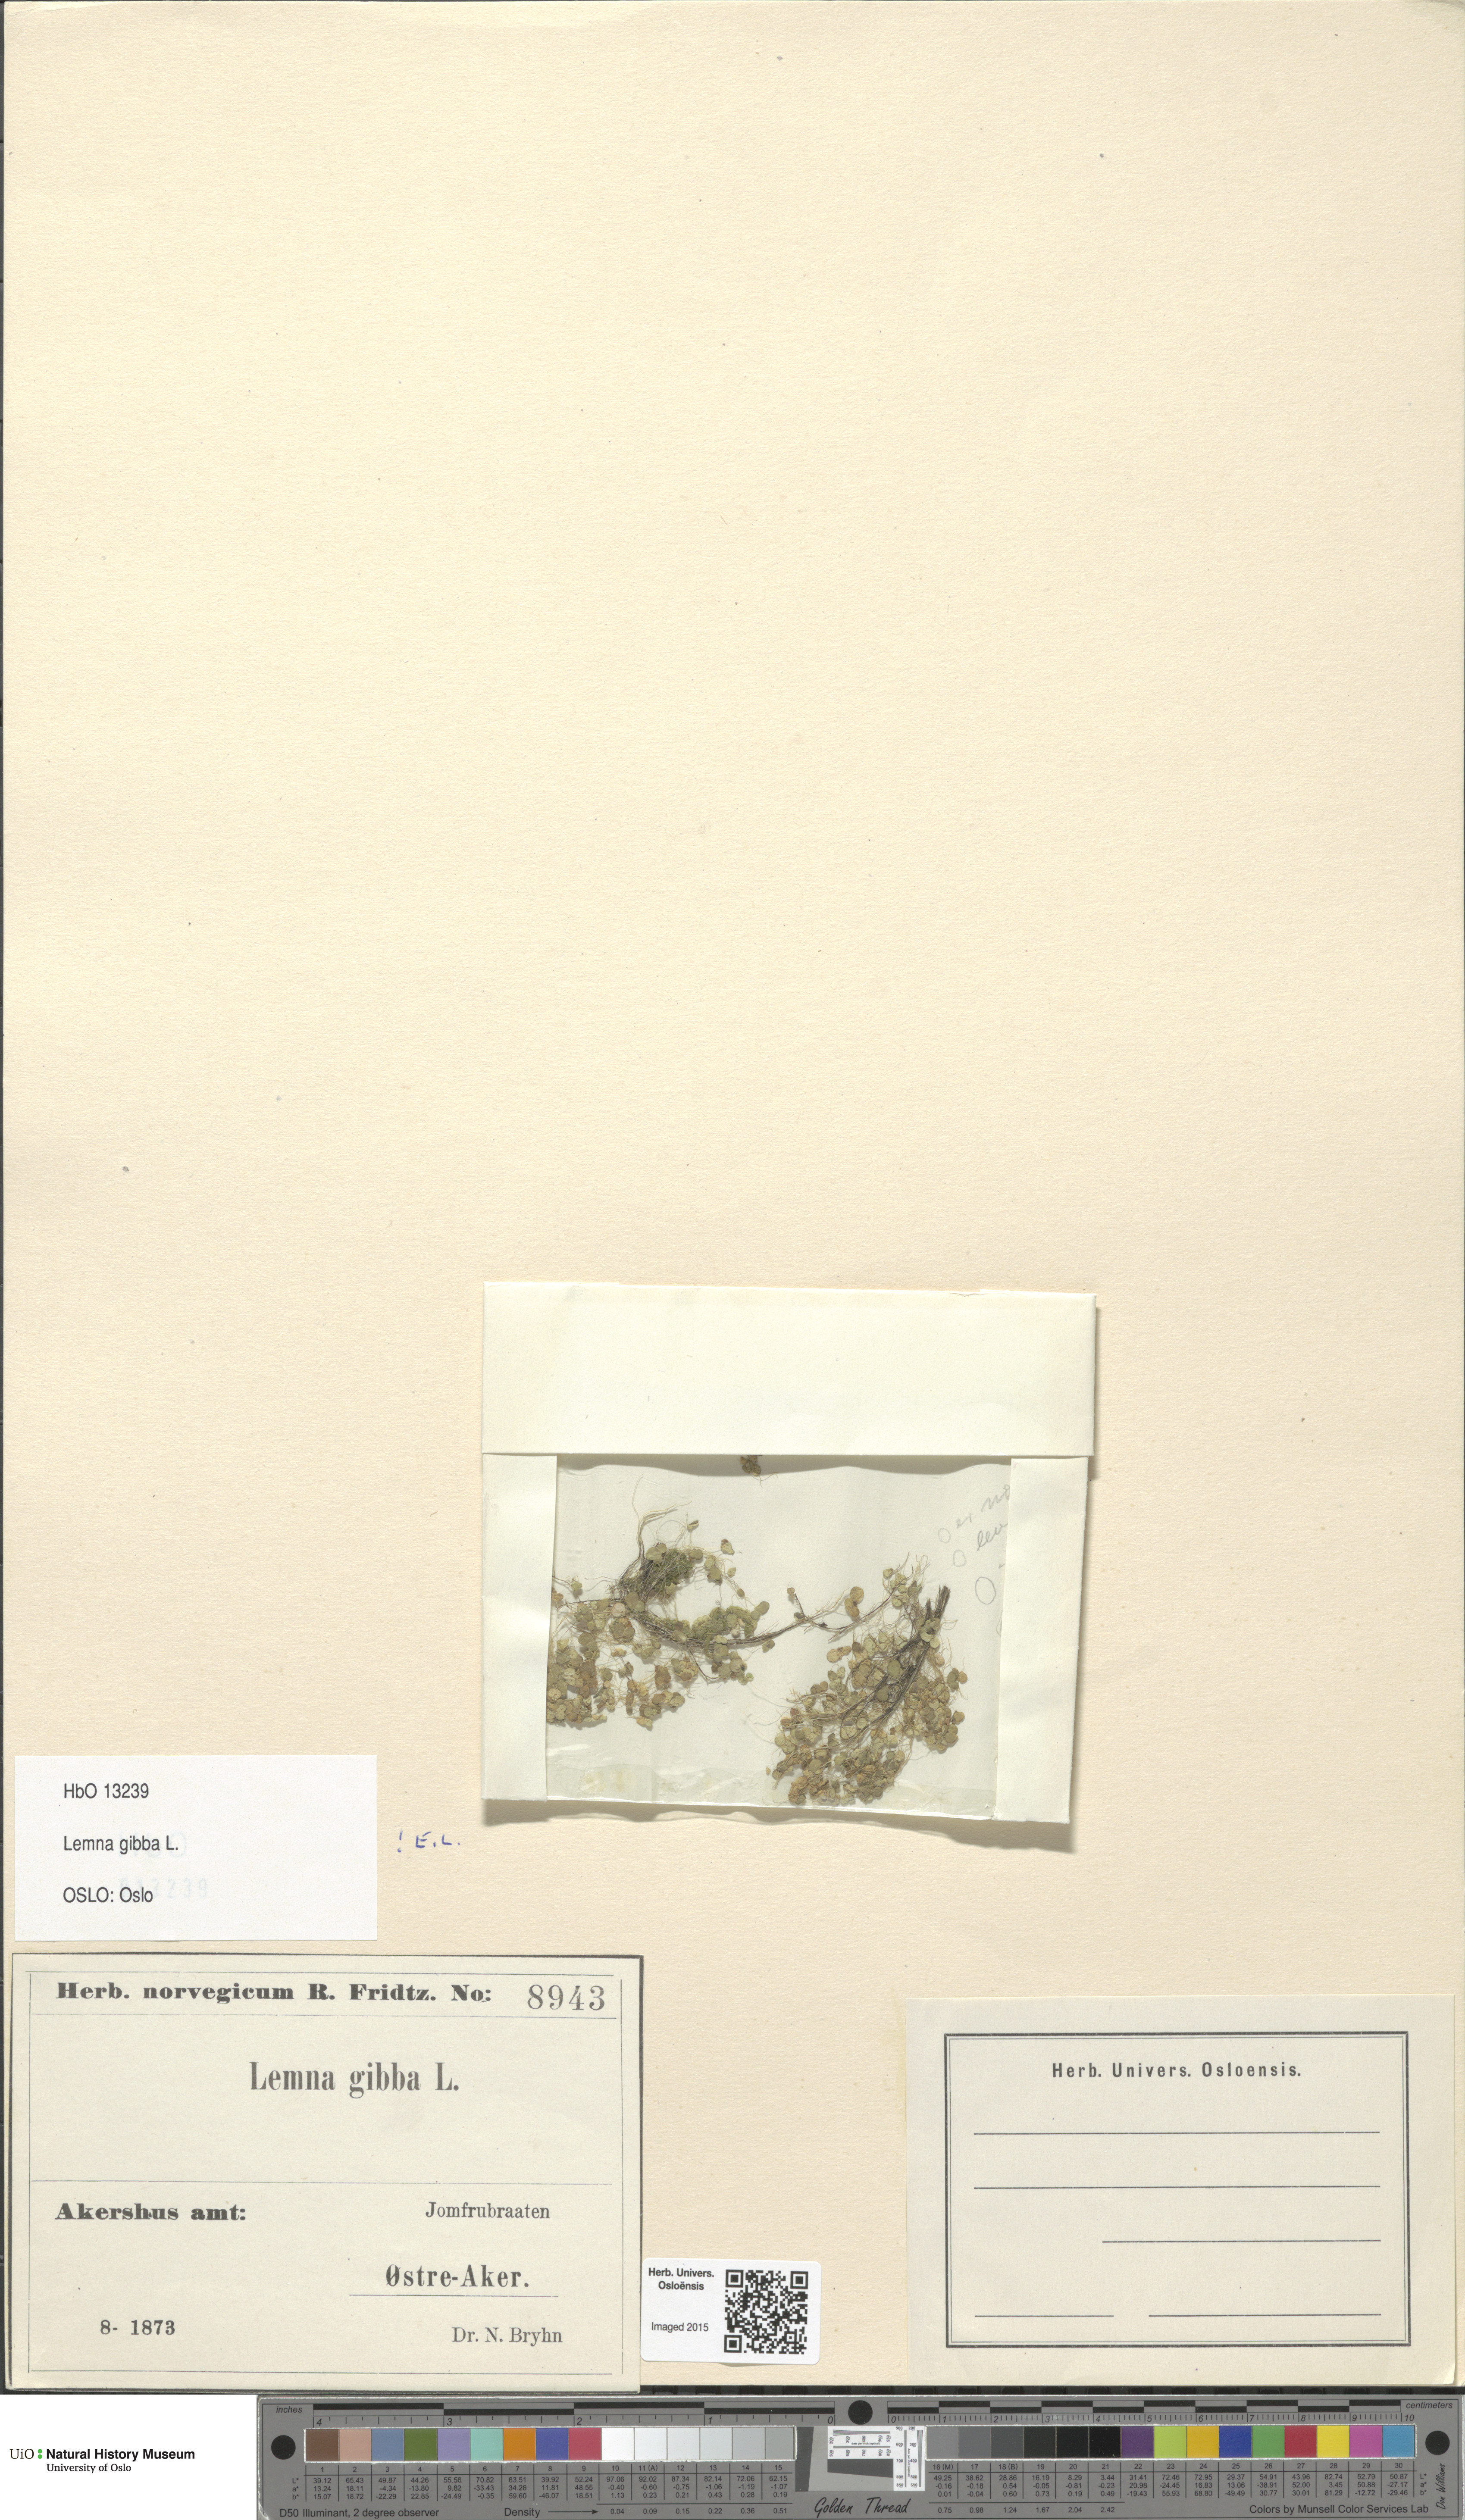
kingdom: Plantae
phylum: Tracheophyta
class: Liliopsida
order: Alismatales
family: Araceae
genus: Lemna
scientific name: Lemna gibba
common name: Fat duckweed
